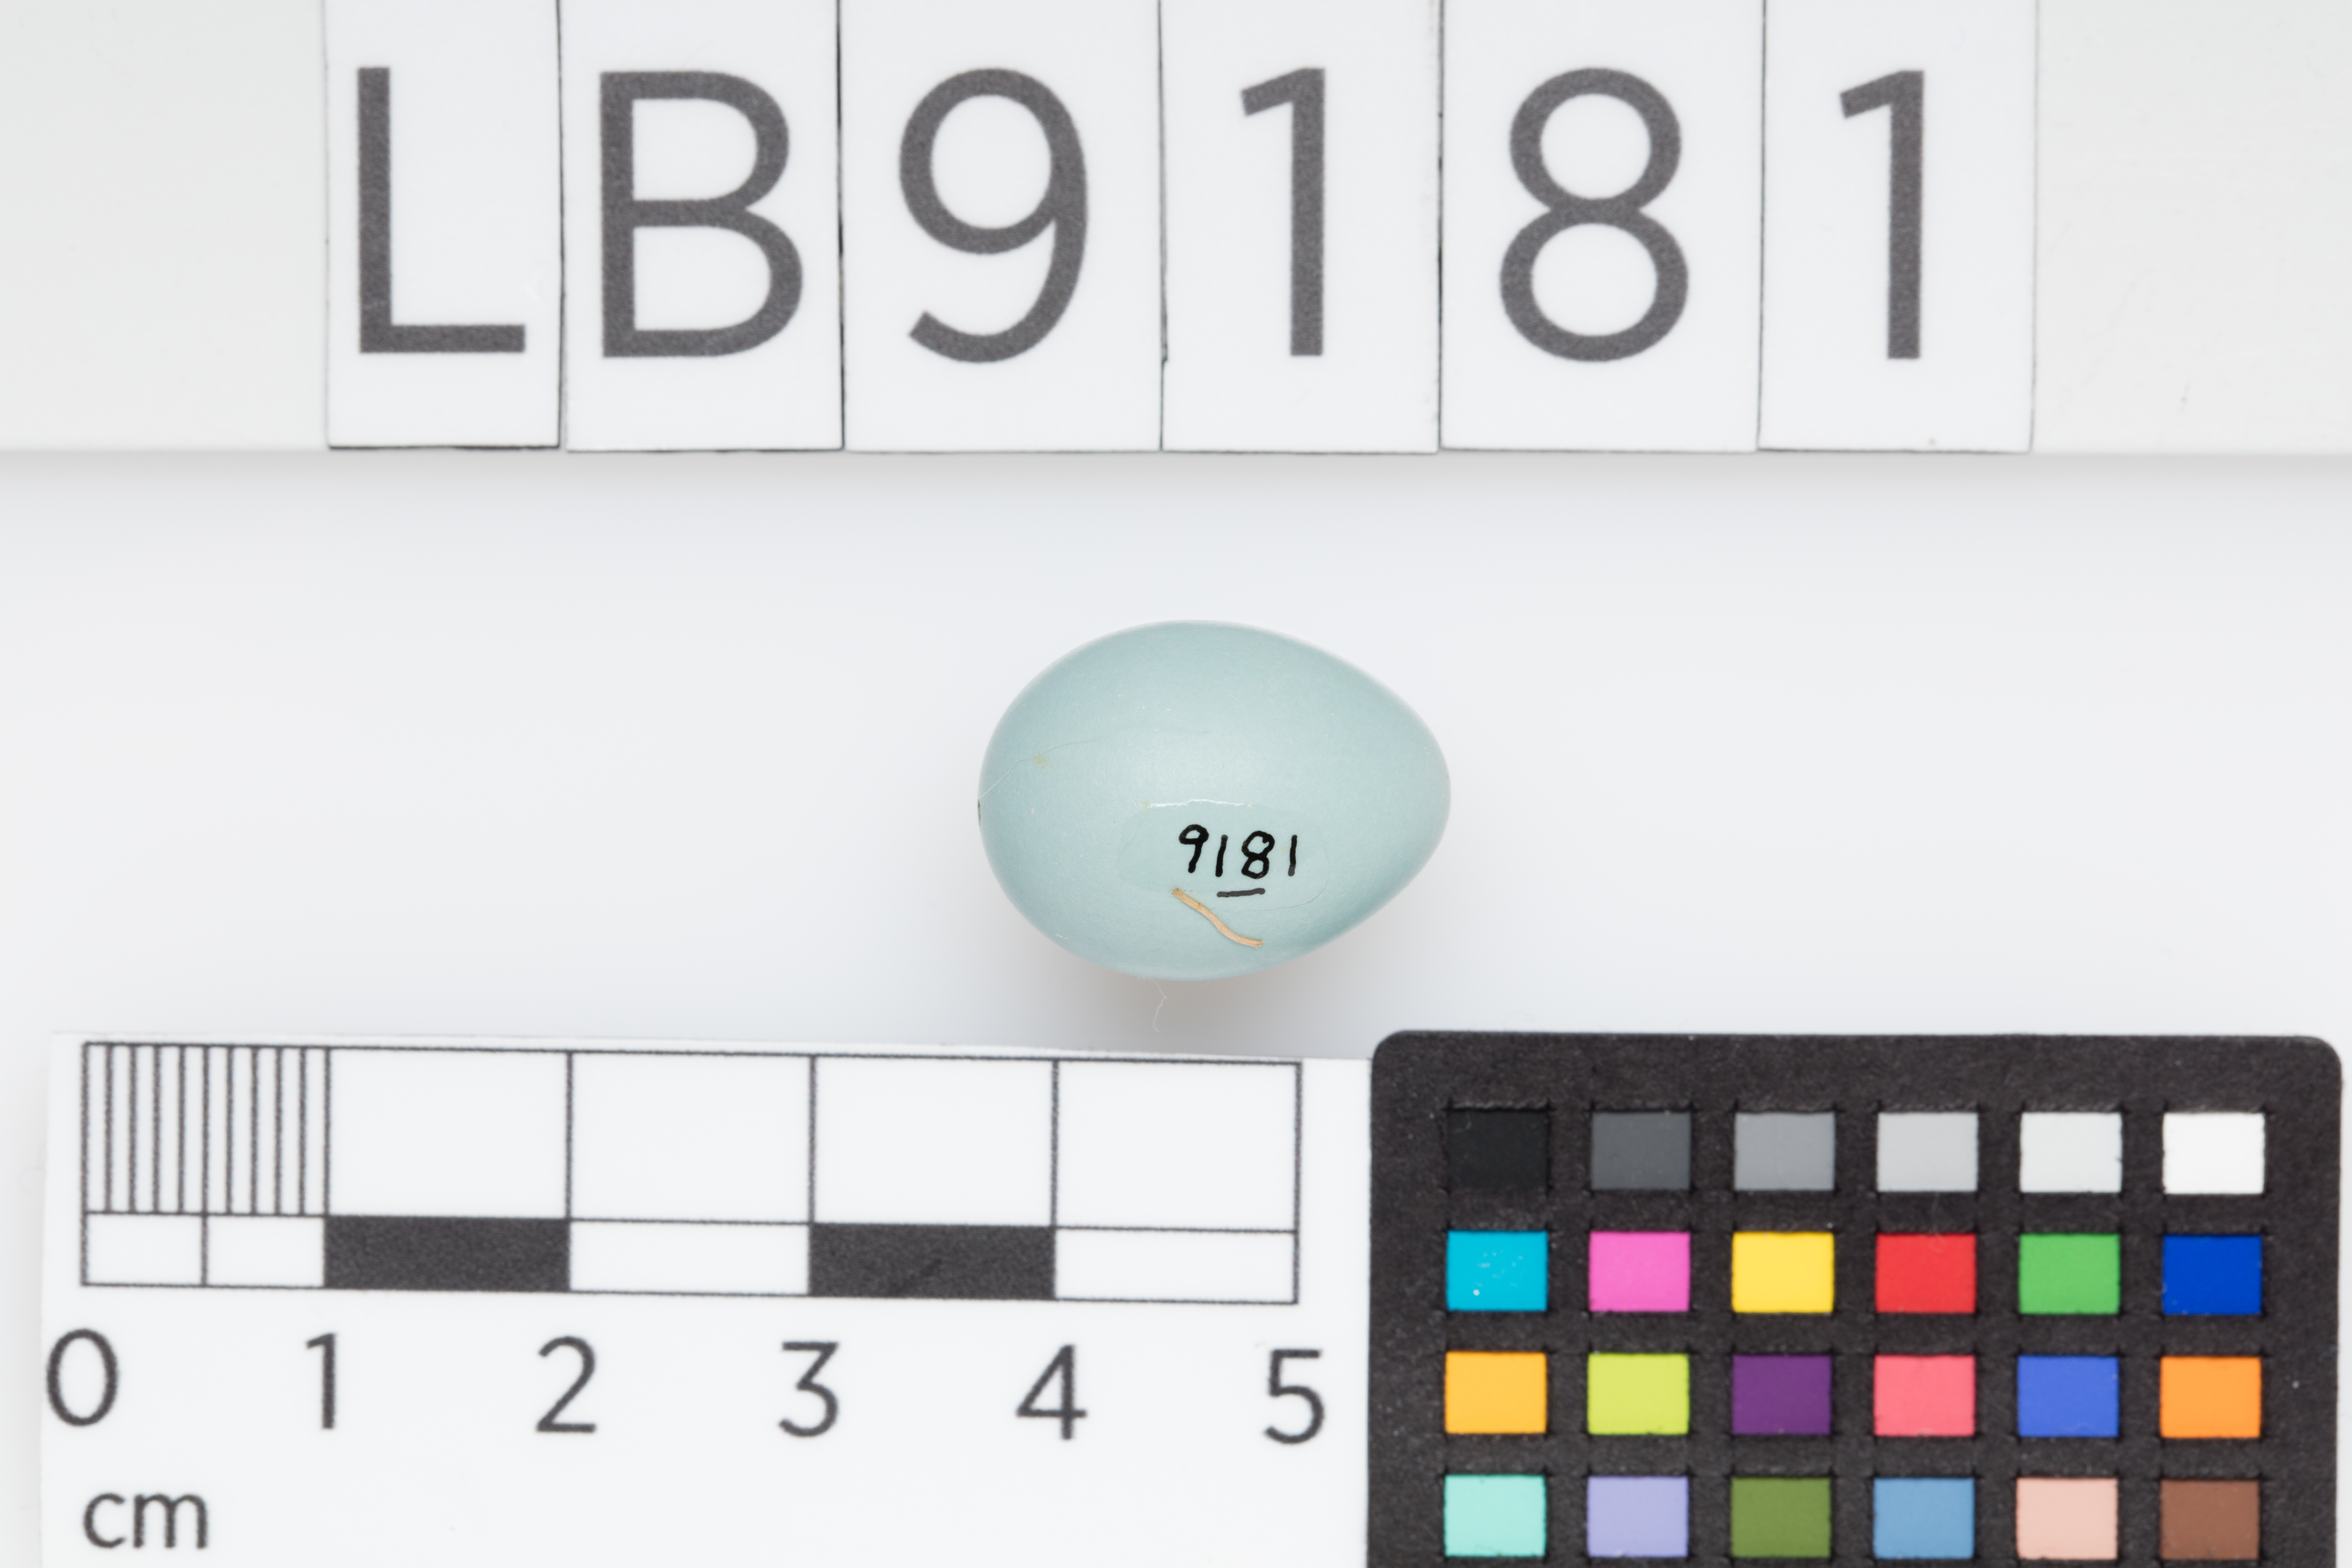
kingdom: Animalia
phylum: Chordata
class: Aves
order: Passeriformes
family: Prunellidae
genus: Prunella
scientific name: Prunella modularis
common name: Dunnock
